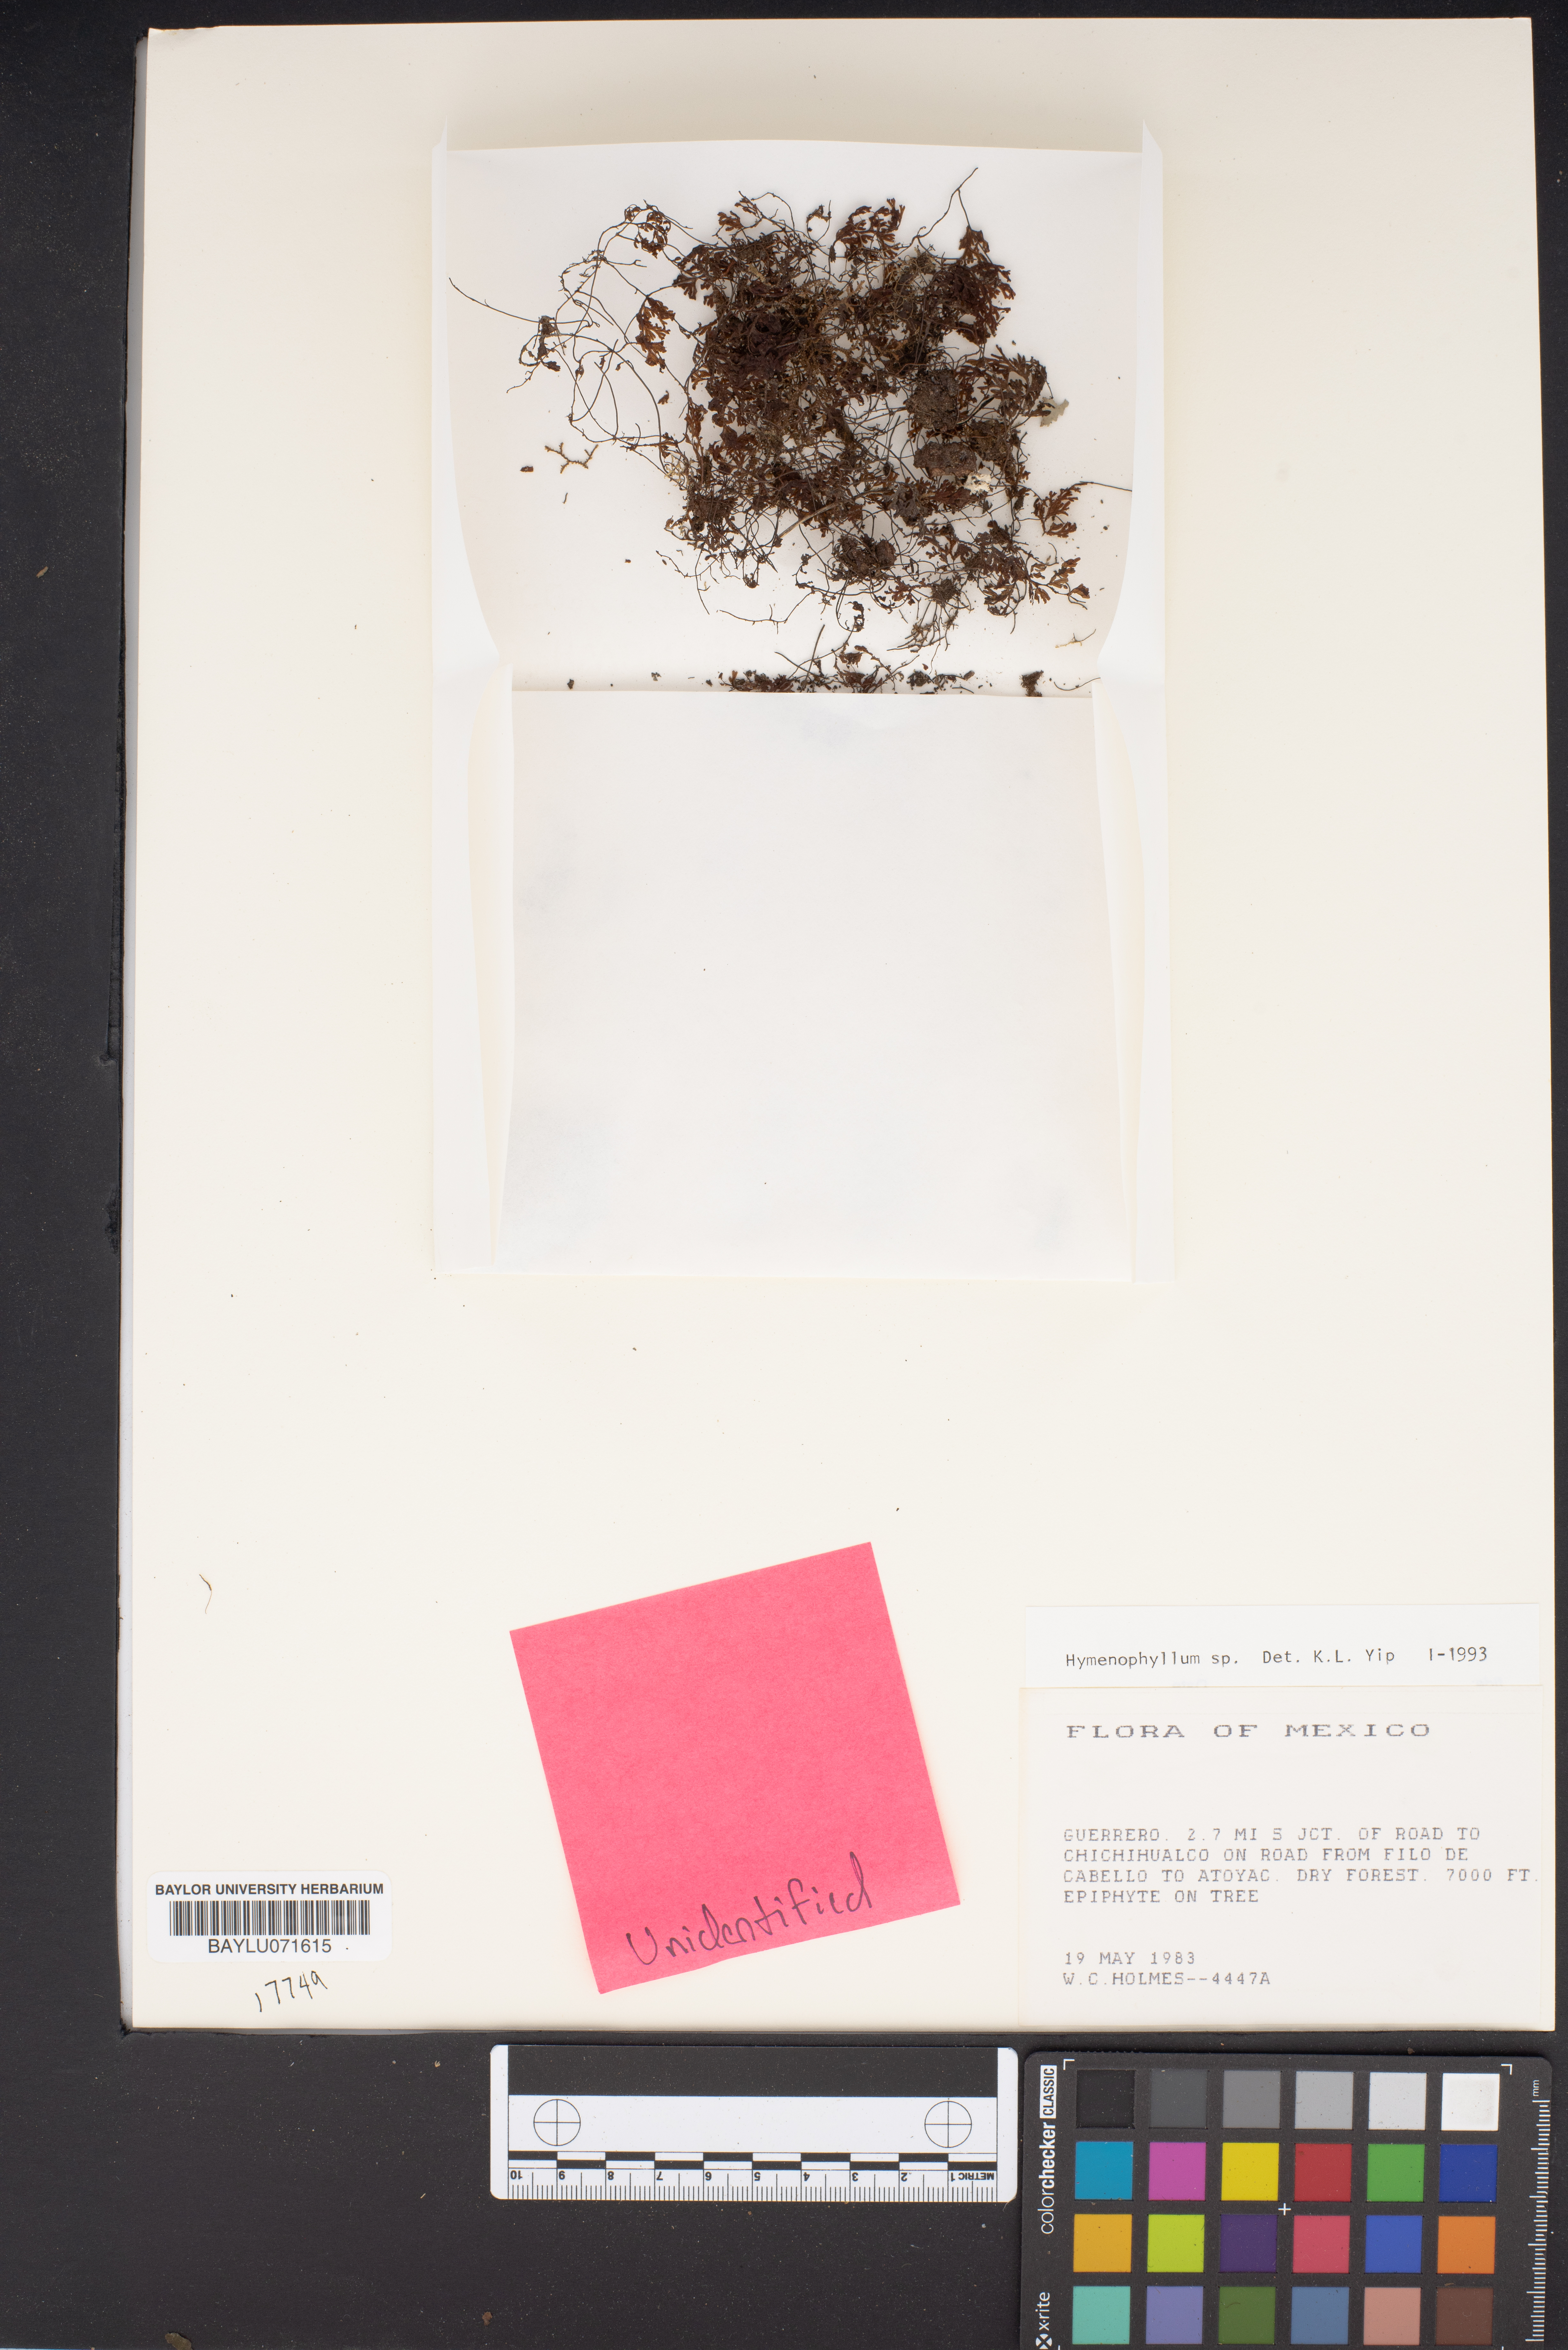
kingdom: Plantae
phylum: Tracheophyta
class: Polypodiopsida
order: Hymenophyllales
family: Hymenophyllaceae
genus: Hymenophyllum
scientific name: Hymenophyllum
